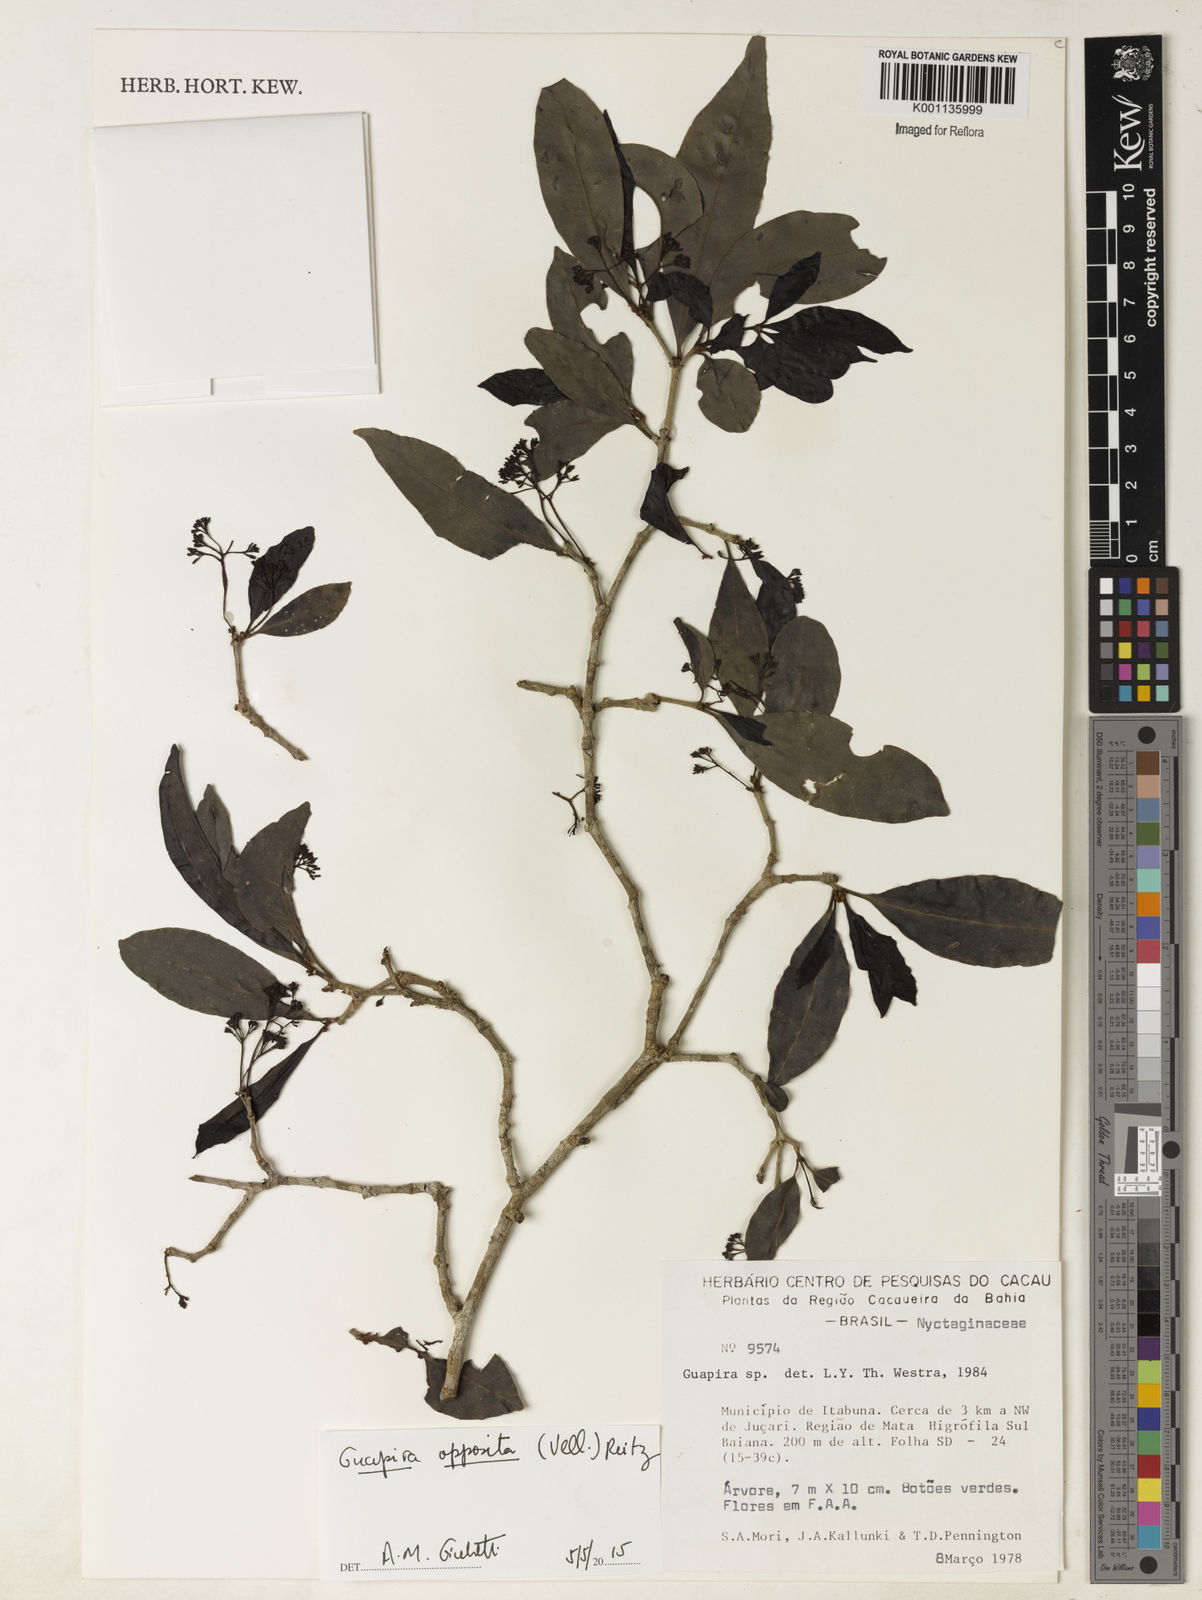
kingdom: Plantae
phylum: Tracheophyta
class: Magnoliopsida
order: Caryophyllales
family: Nyctaginaceae
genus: Guapira
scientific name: Guapira opposita
